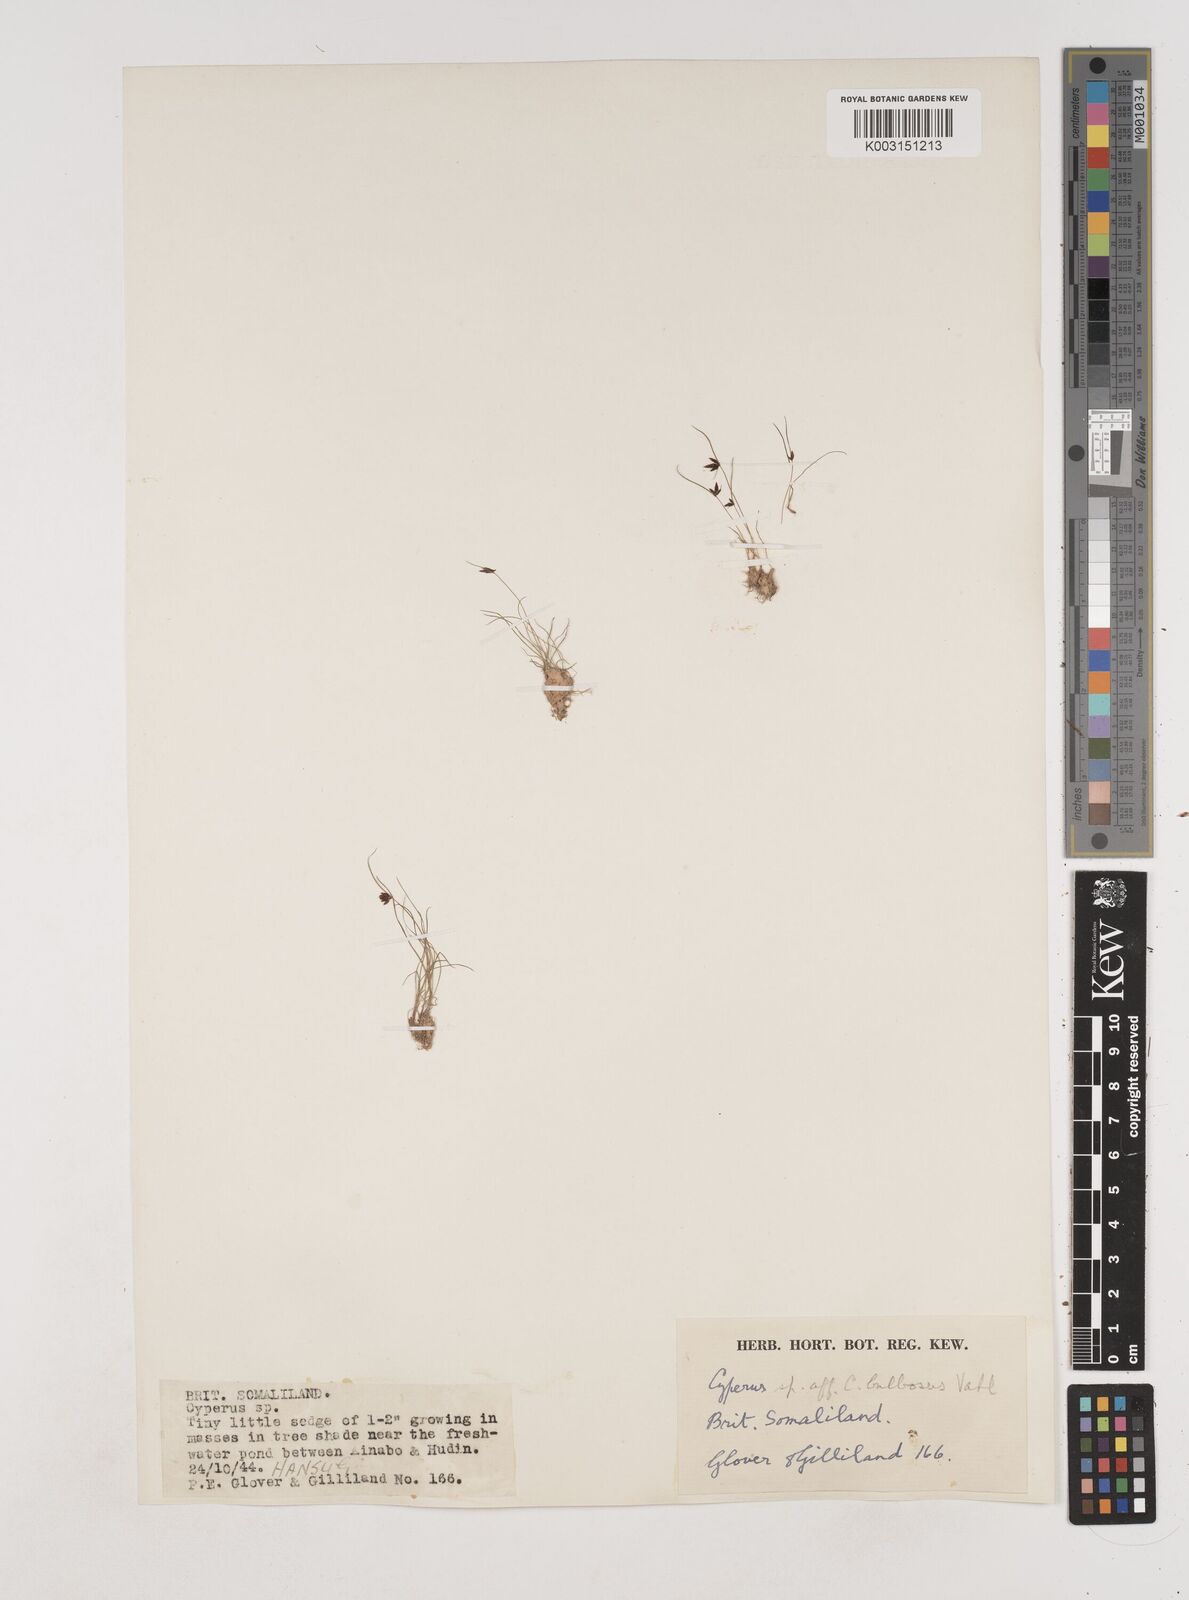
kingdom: Plantae
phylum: Tracheophyta
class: Liliopsida
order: Poales
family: Cyperaceae
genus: Cyperus
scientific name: Cyperus
